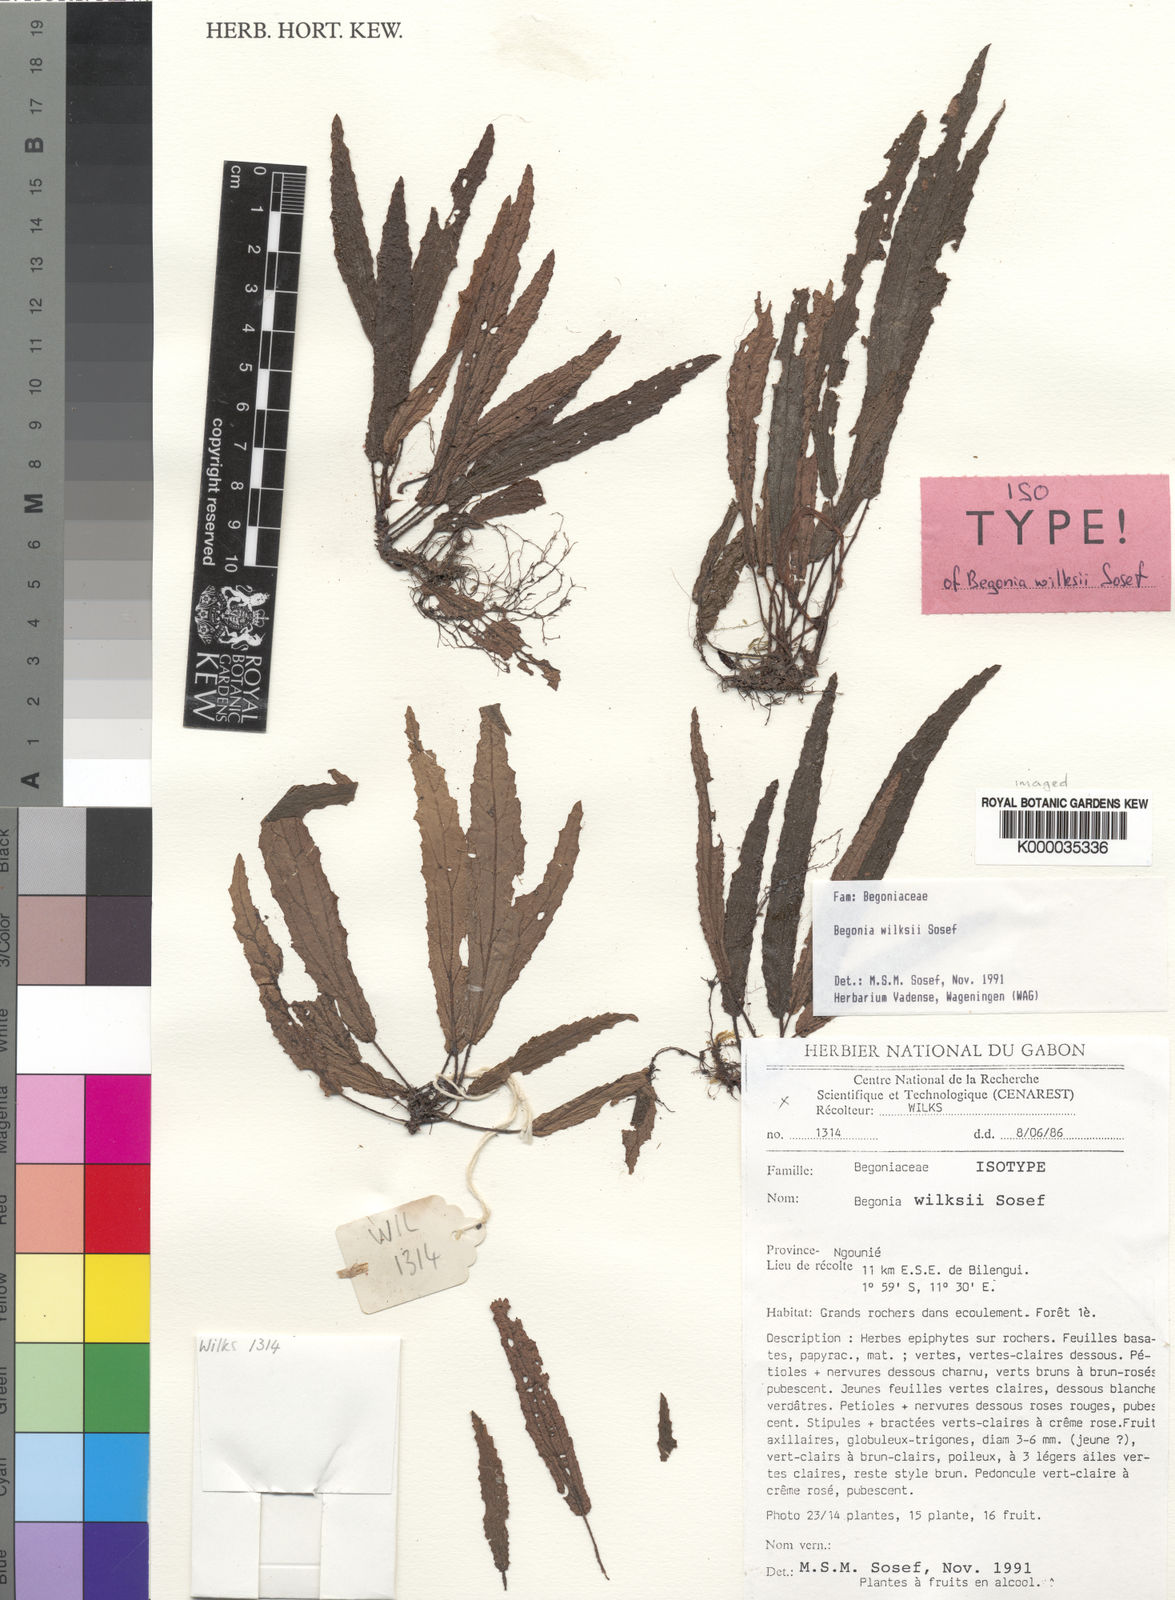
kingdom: Plantae
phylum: Tracheophyta
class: Magnoliopsida
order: Cucurbitales
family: Begoniaceae
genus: Begonia
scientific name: Begonia wilksii
